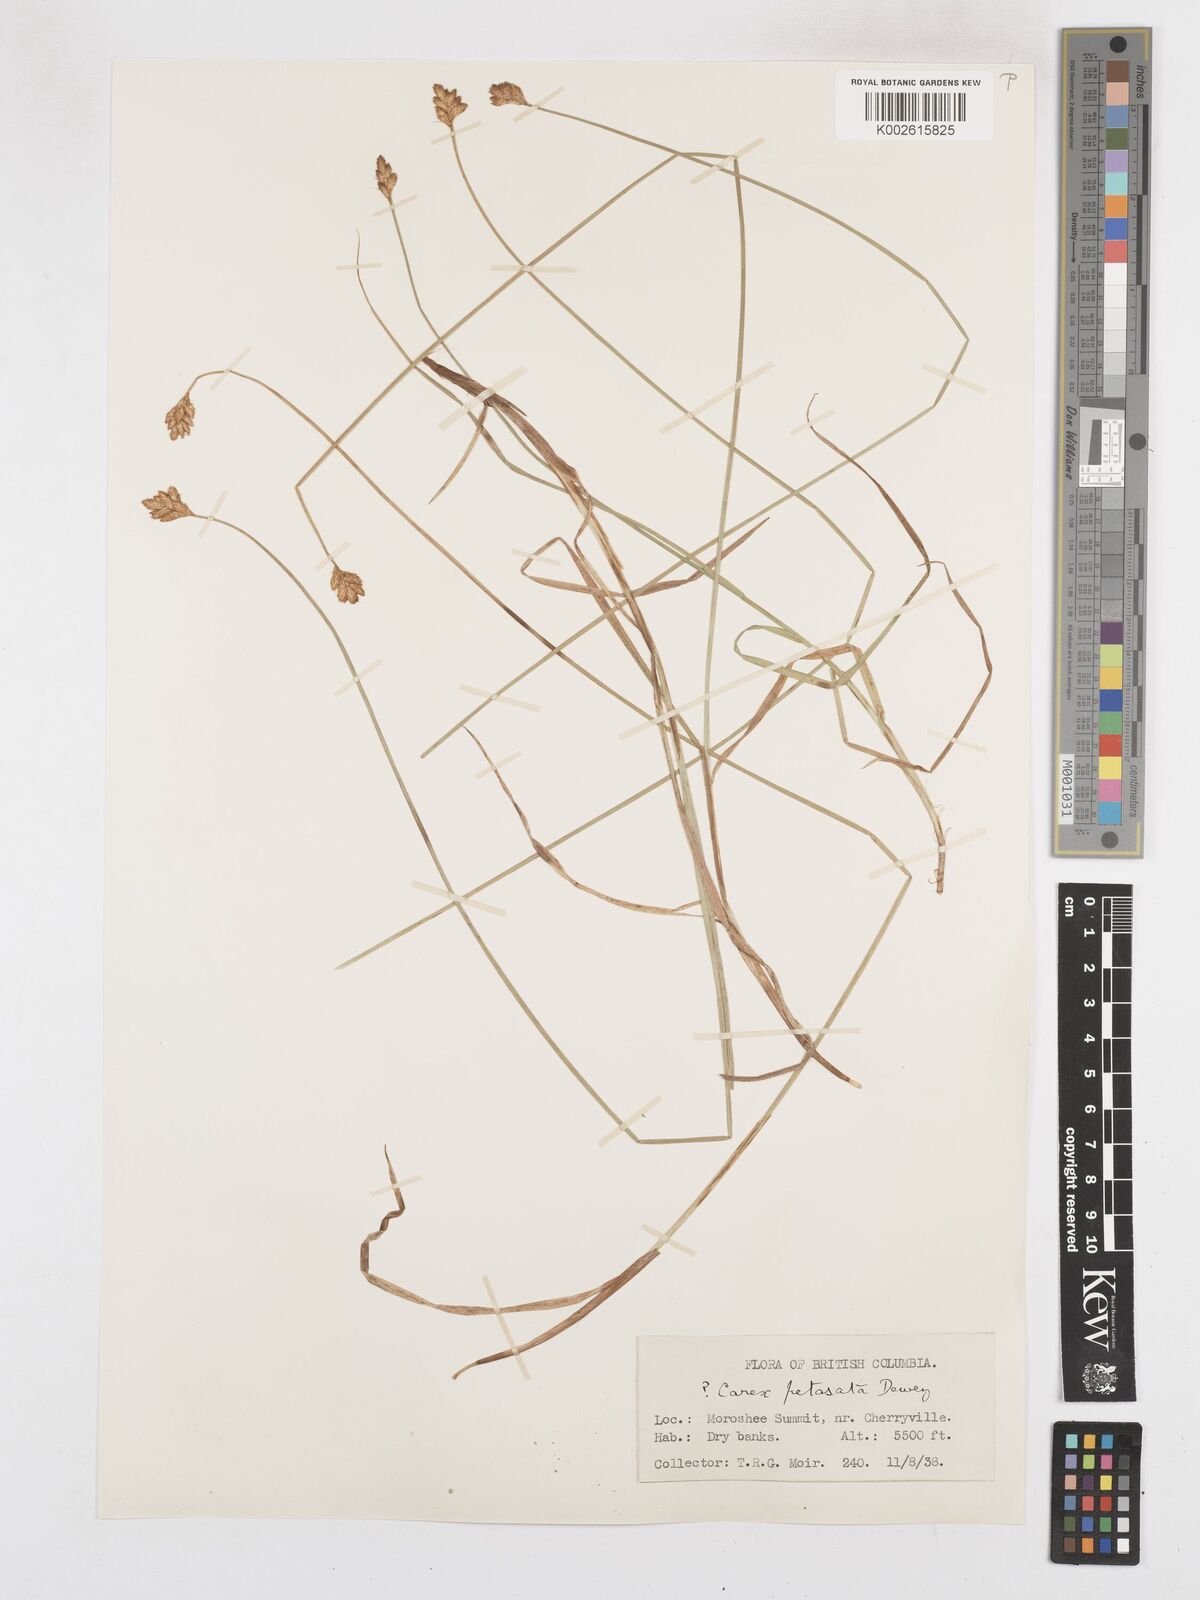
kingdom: Plantae
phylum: Tracheophyta
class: Liliopsida
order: Poales
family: Cyperaceae
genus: Carex
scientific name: Carex petasata
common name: Liddon's sedge
